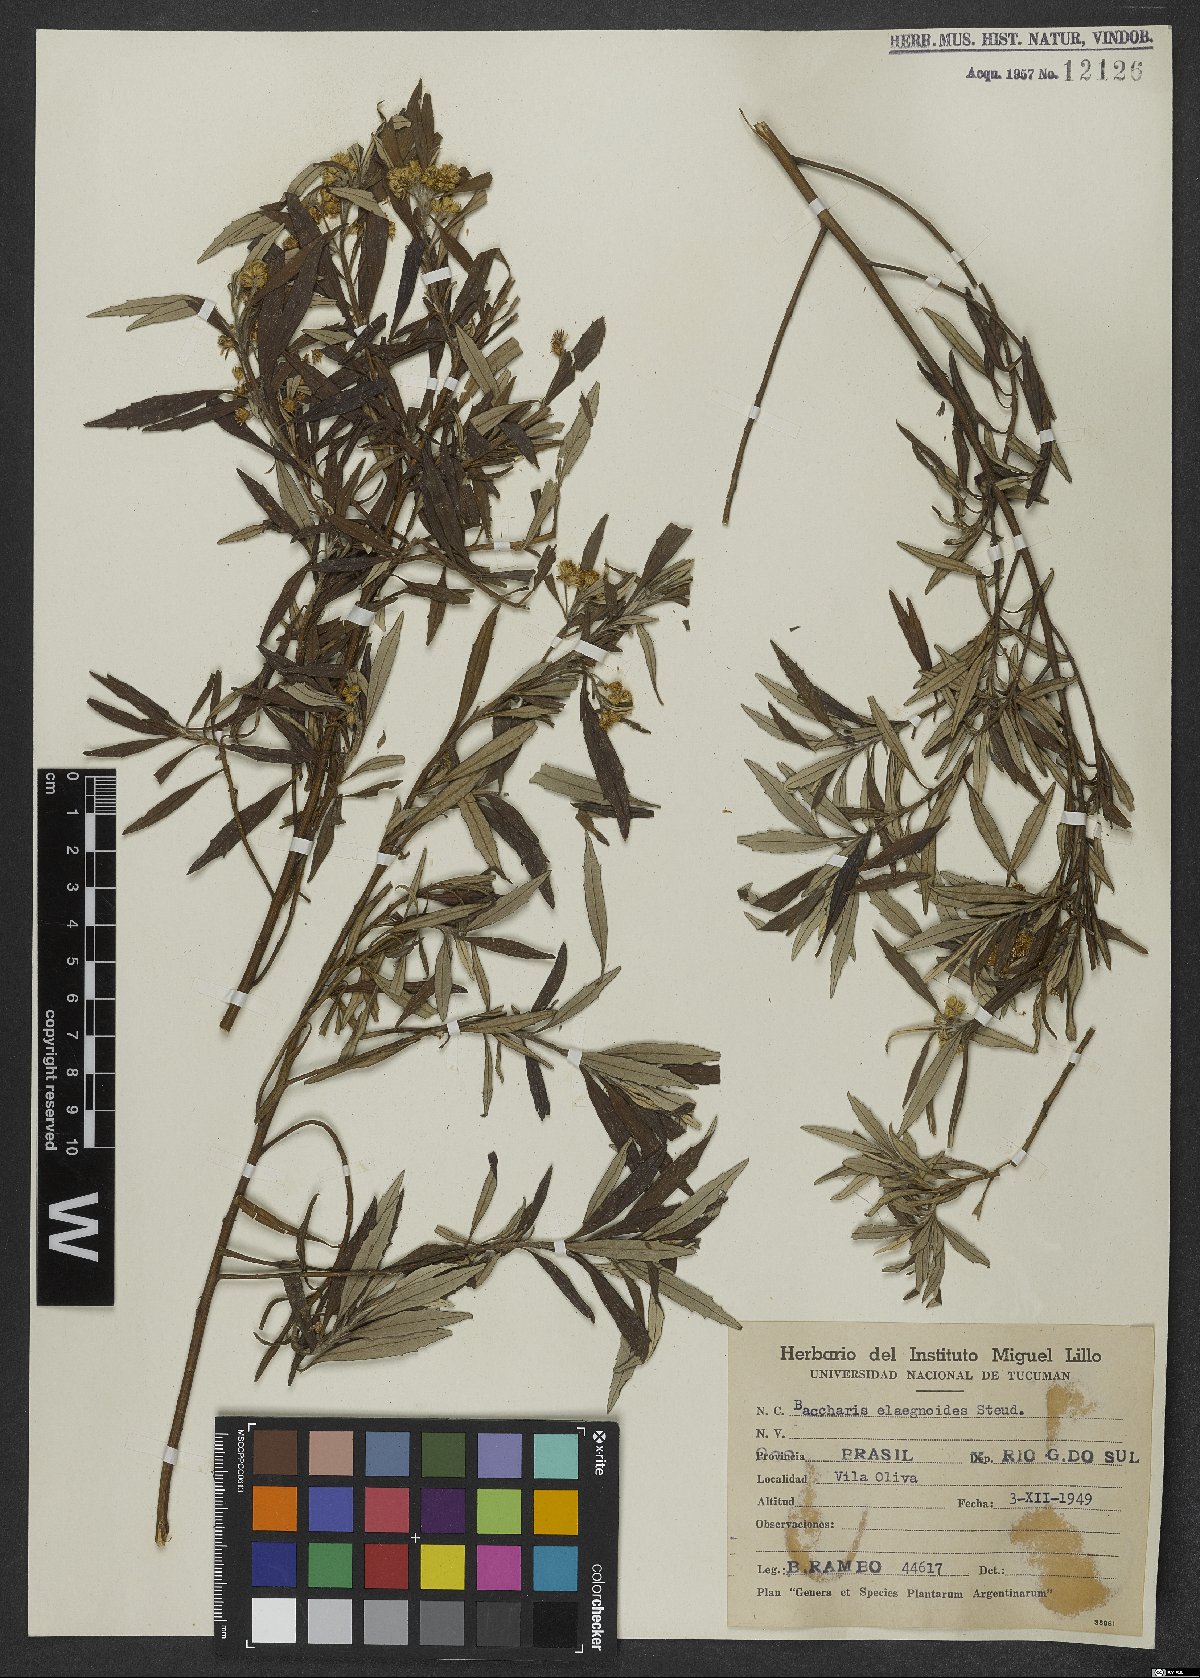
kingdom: Plantae
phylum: Tracheophyta
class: Magnoliopsida
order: Asterales
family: Asteraceae
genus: Baccharis
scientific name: Baccharis montana
